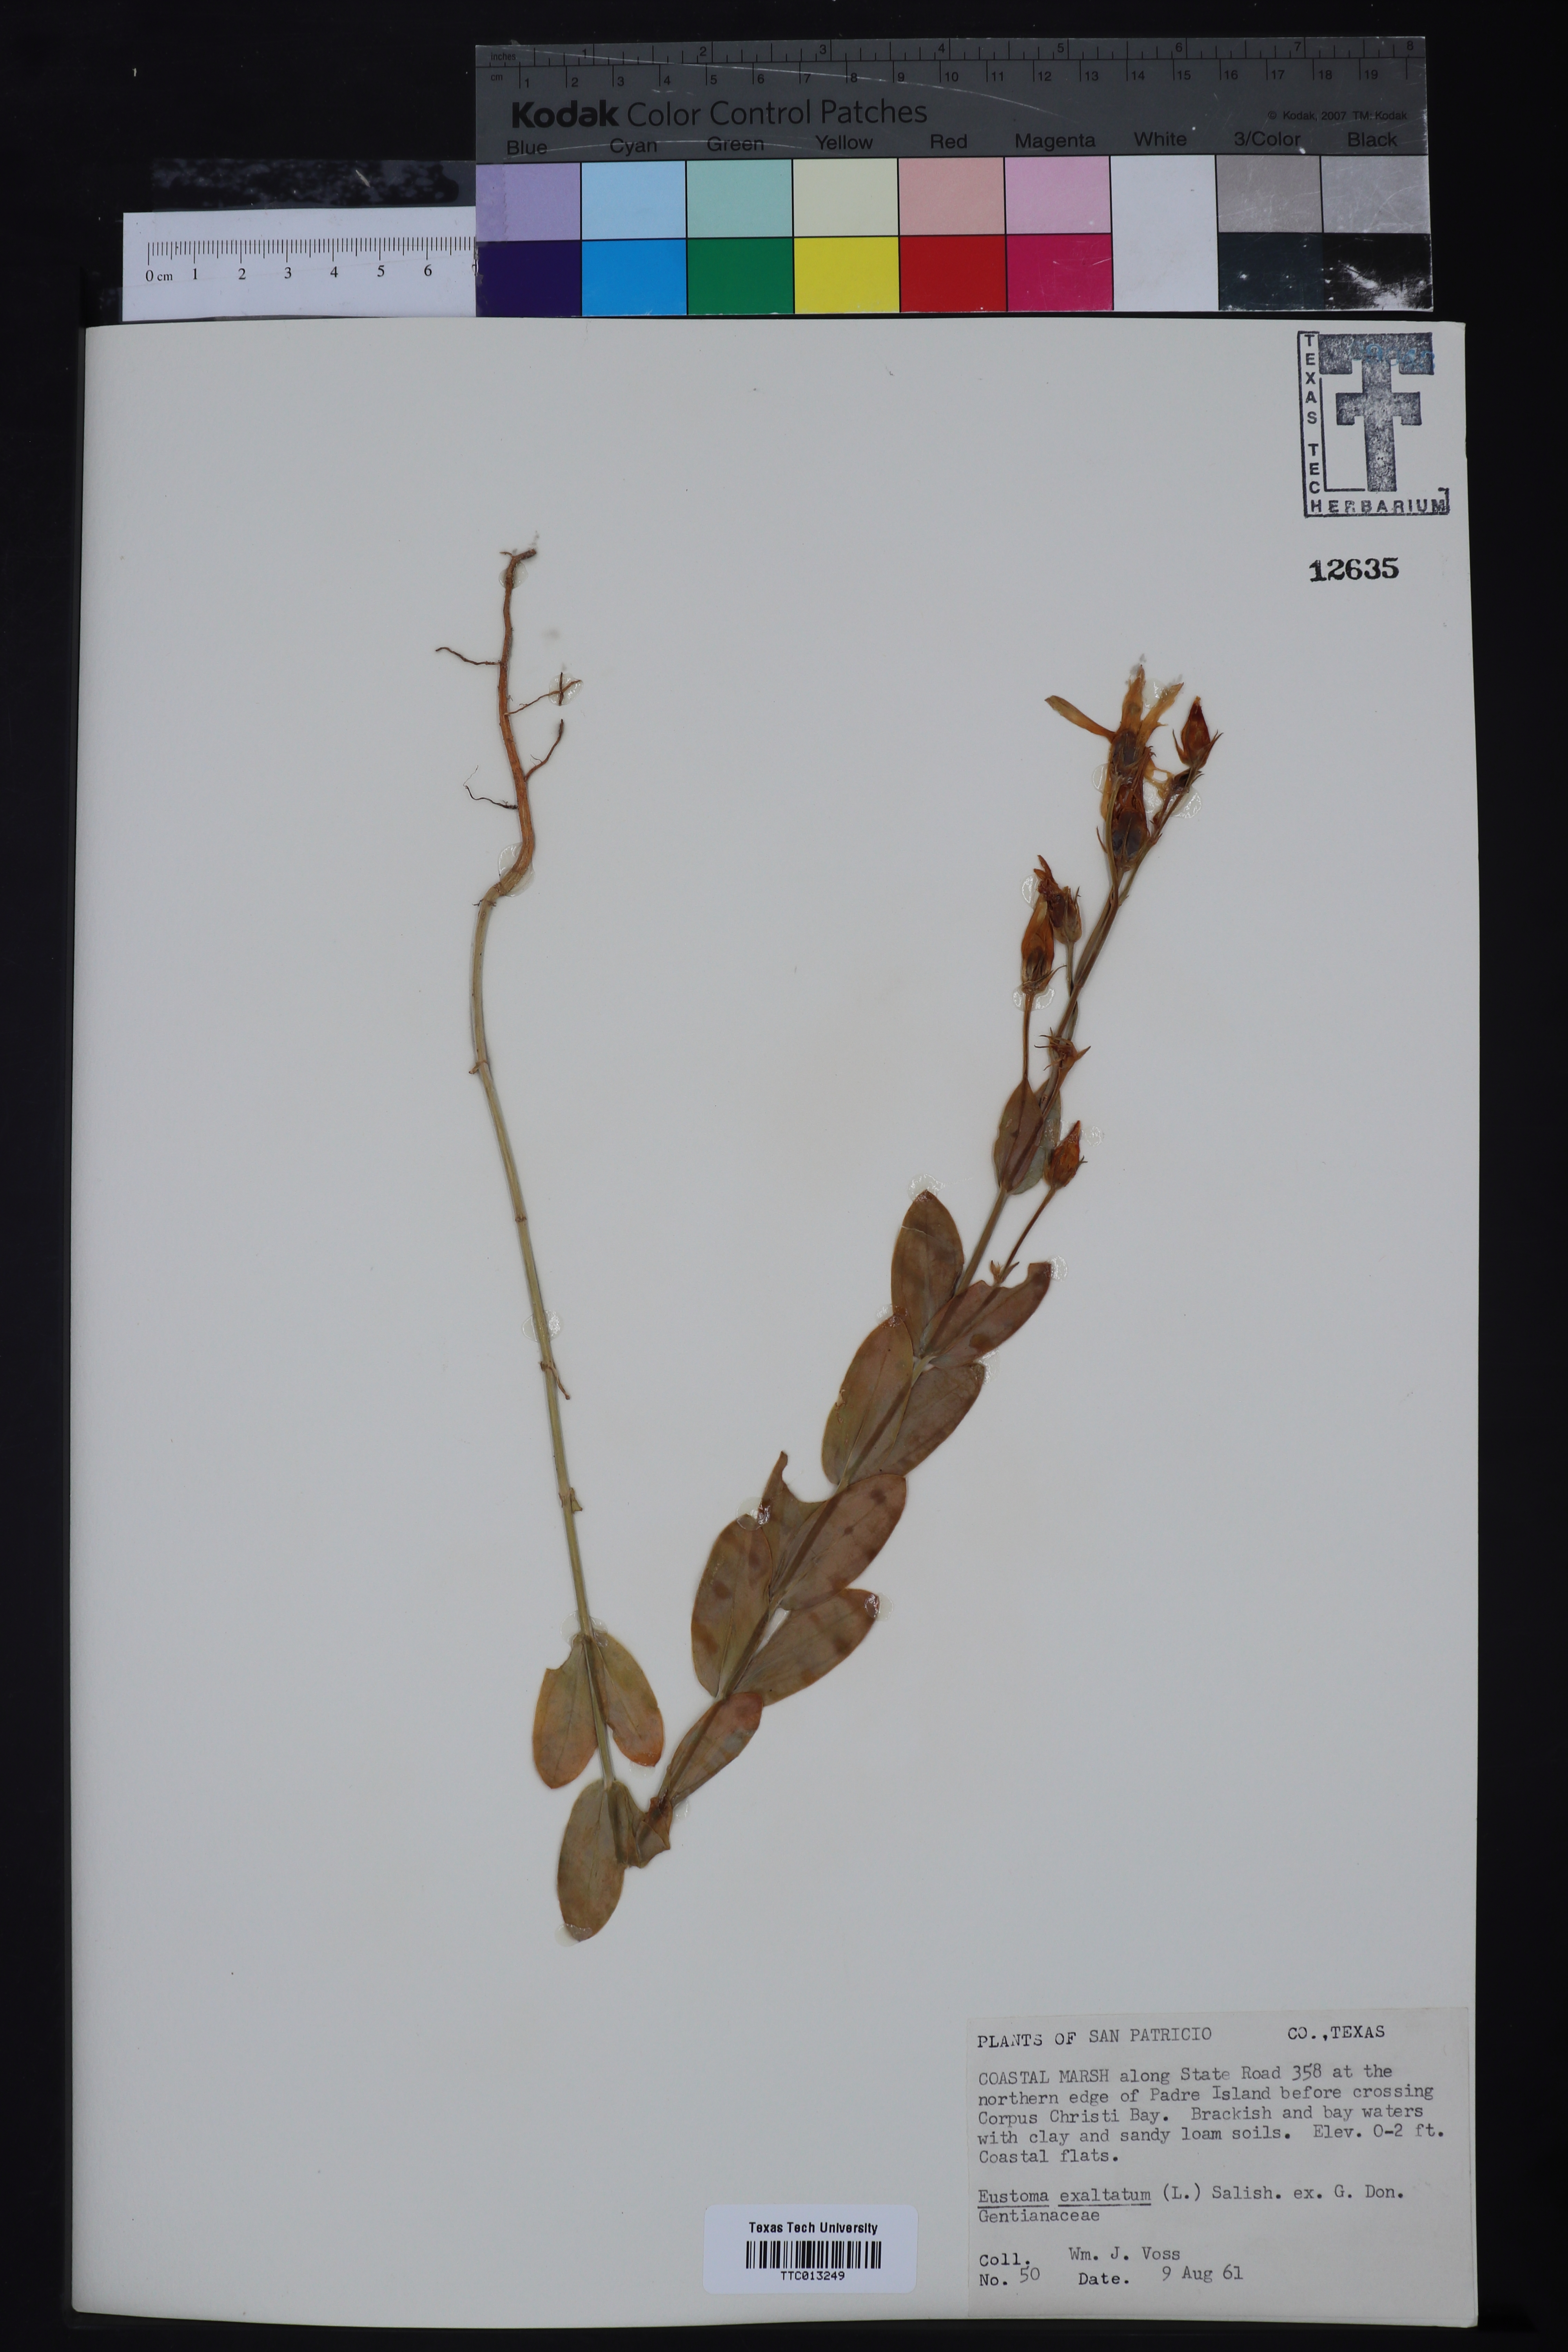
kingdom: Plantae
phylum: Tracheophyta
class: Magnoliopsida
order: Gentianales
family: Gentianaceae
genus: Eustoma
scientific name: Eustoma exaltatum
